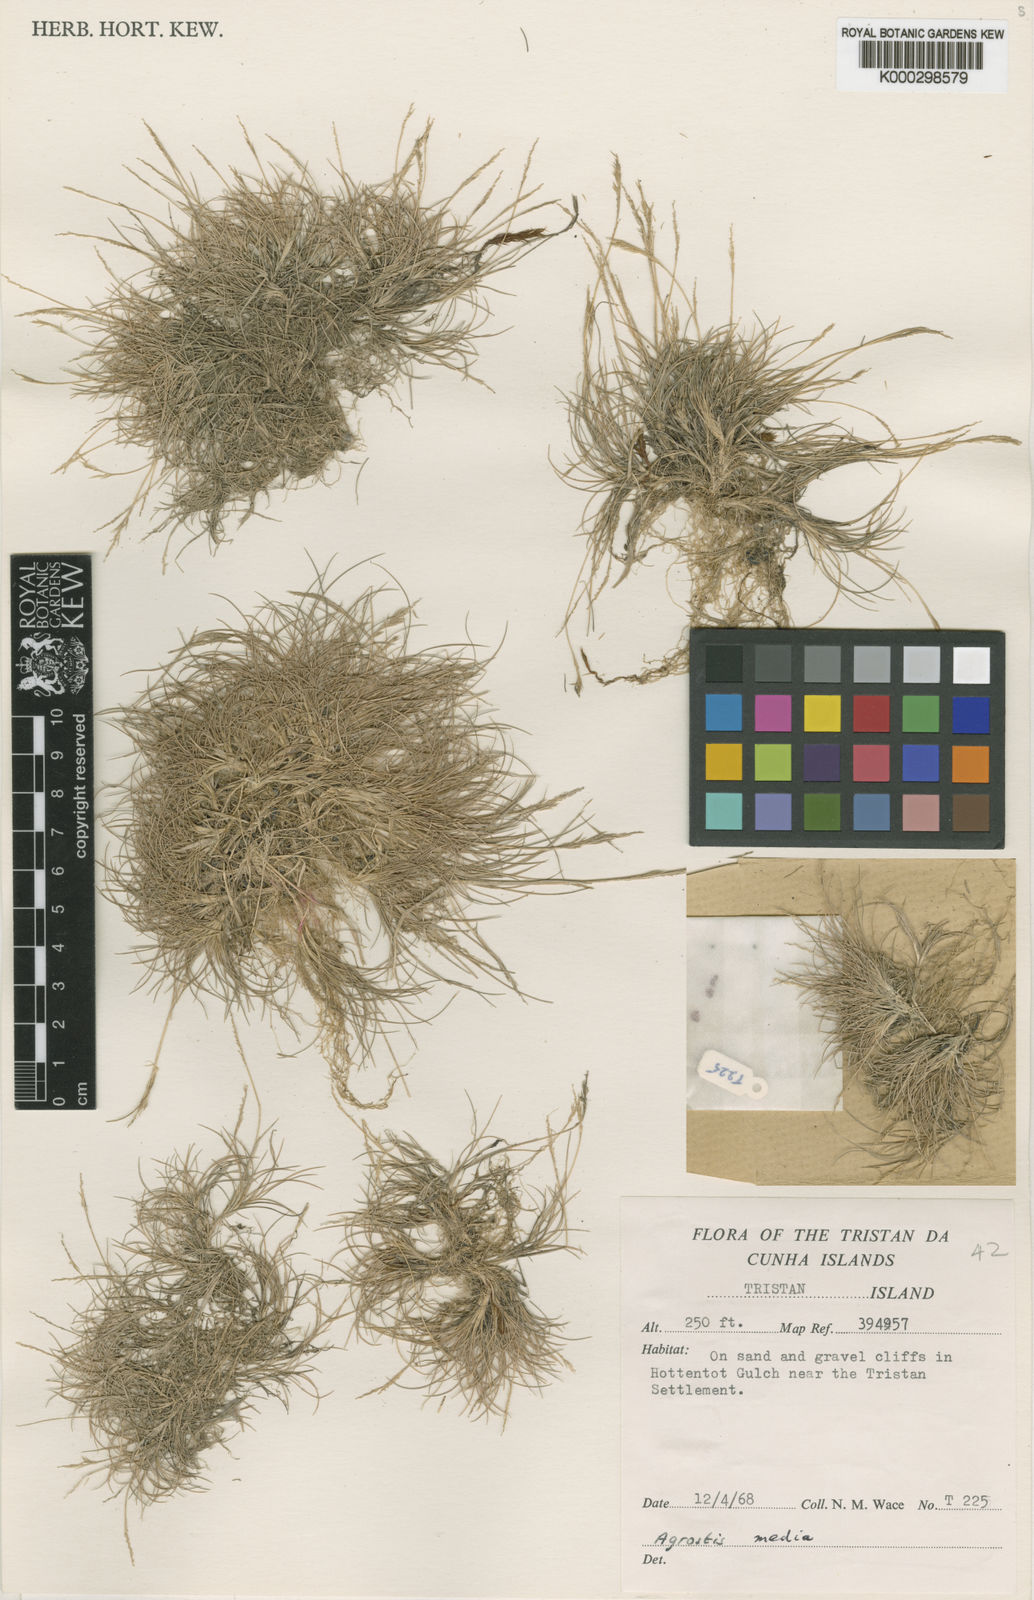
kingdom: Plantae
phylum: Tracheophyta
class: Liliopsida
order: Poales
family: Poaceae
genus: Agrostis
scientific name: Agrostis media
